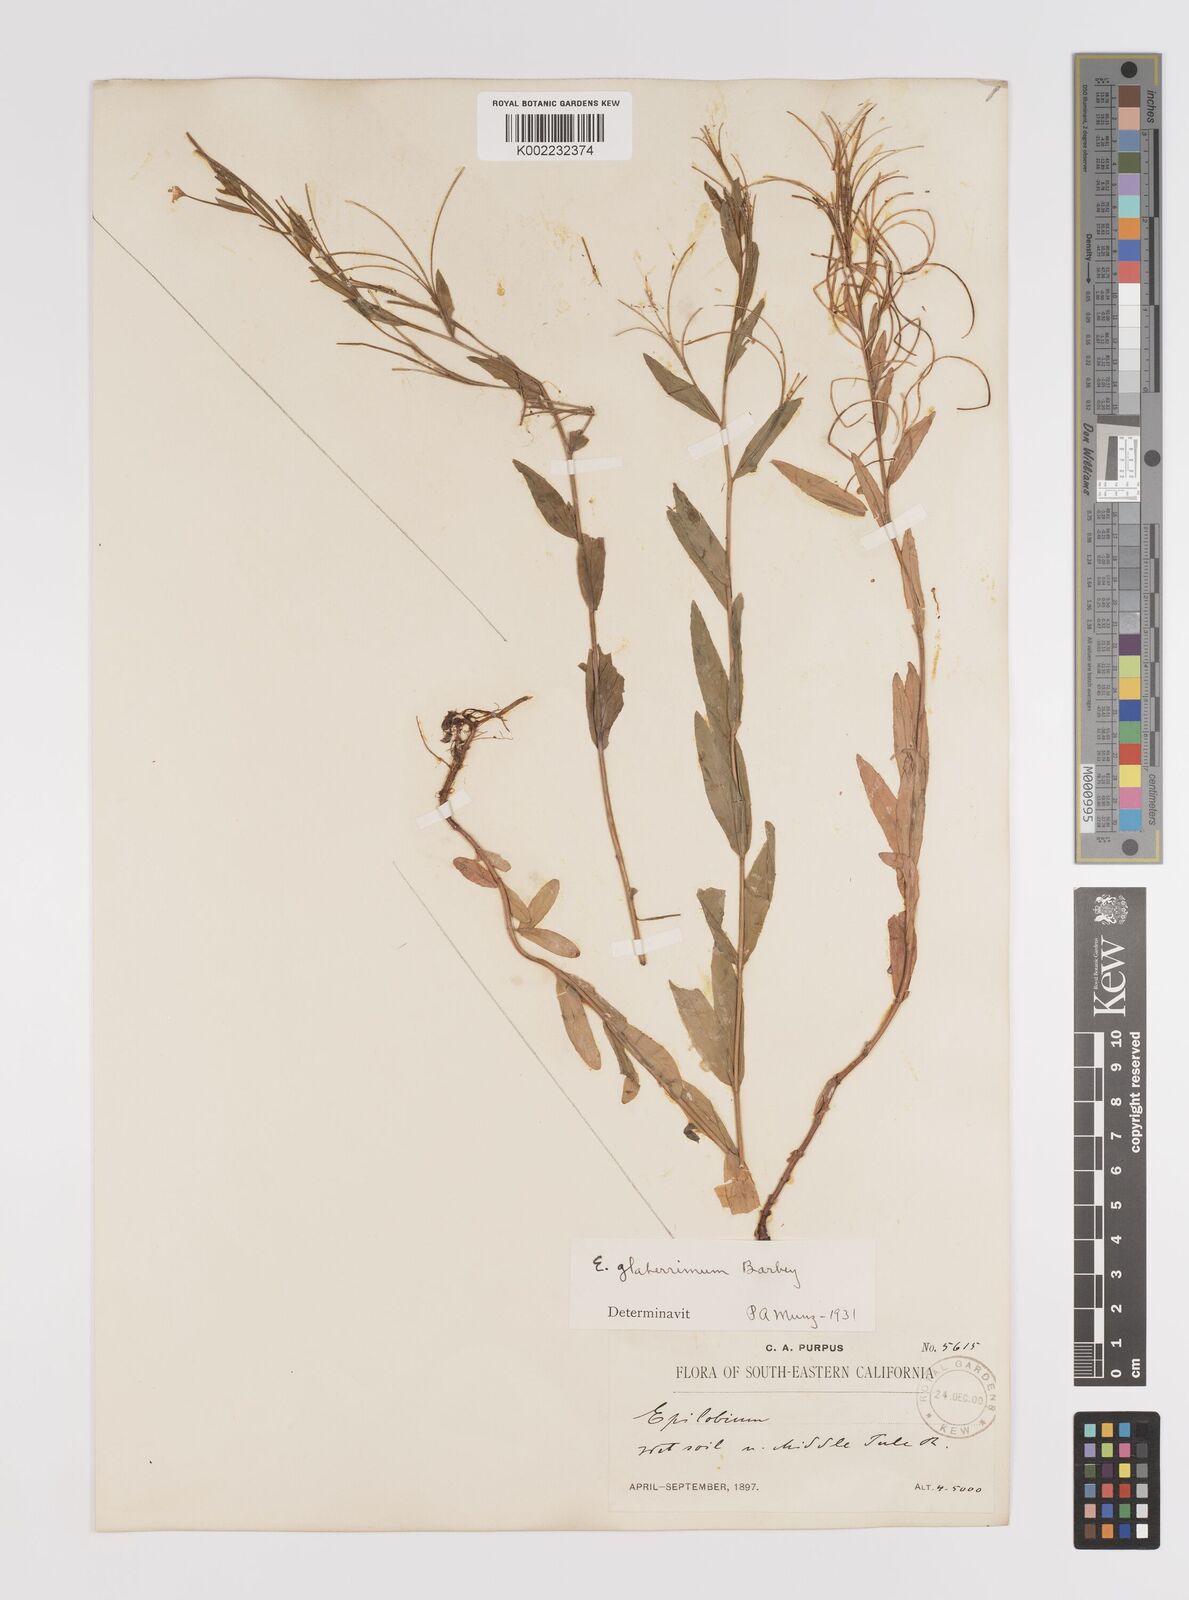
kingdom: Plantae
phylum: Tracheophyta
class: Magnoliopsida
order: Myrtales
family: Onagraceae
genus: Epilobium
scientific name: Epilobium glaberrimum
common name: Glaucous willowherb
